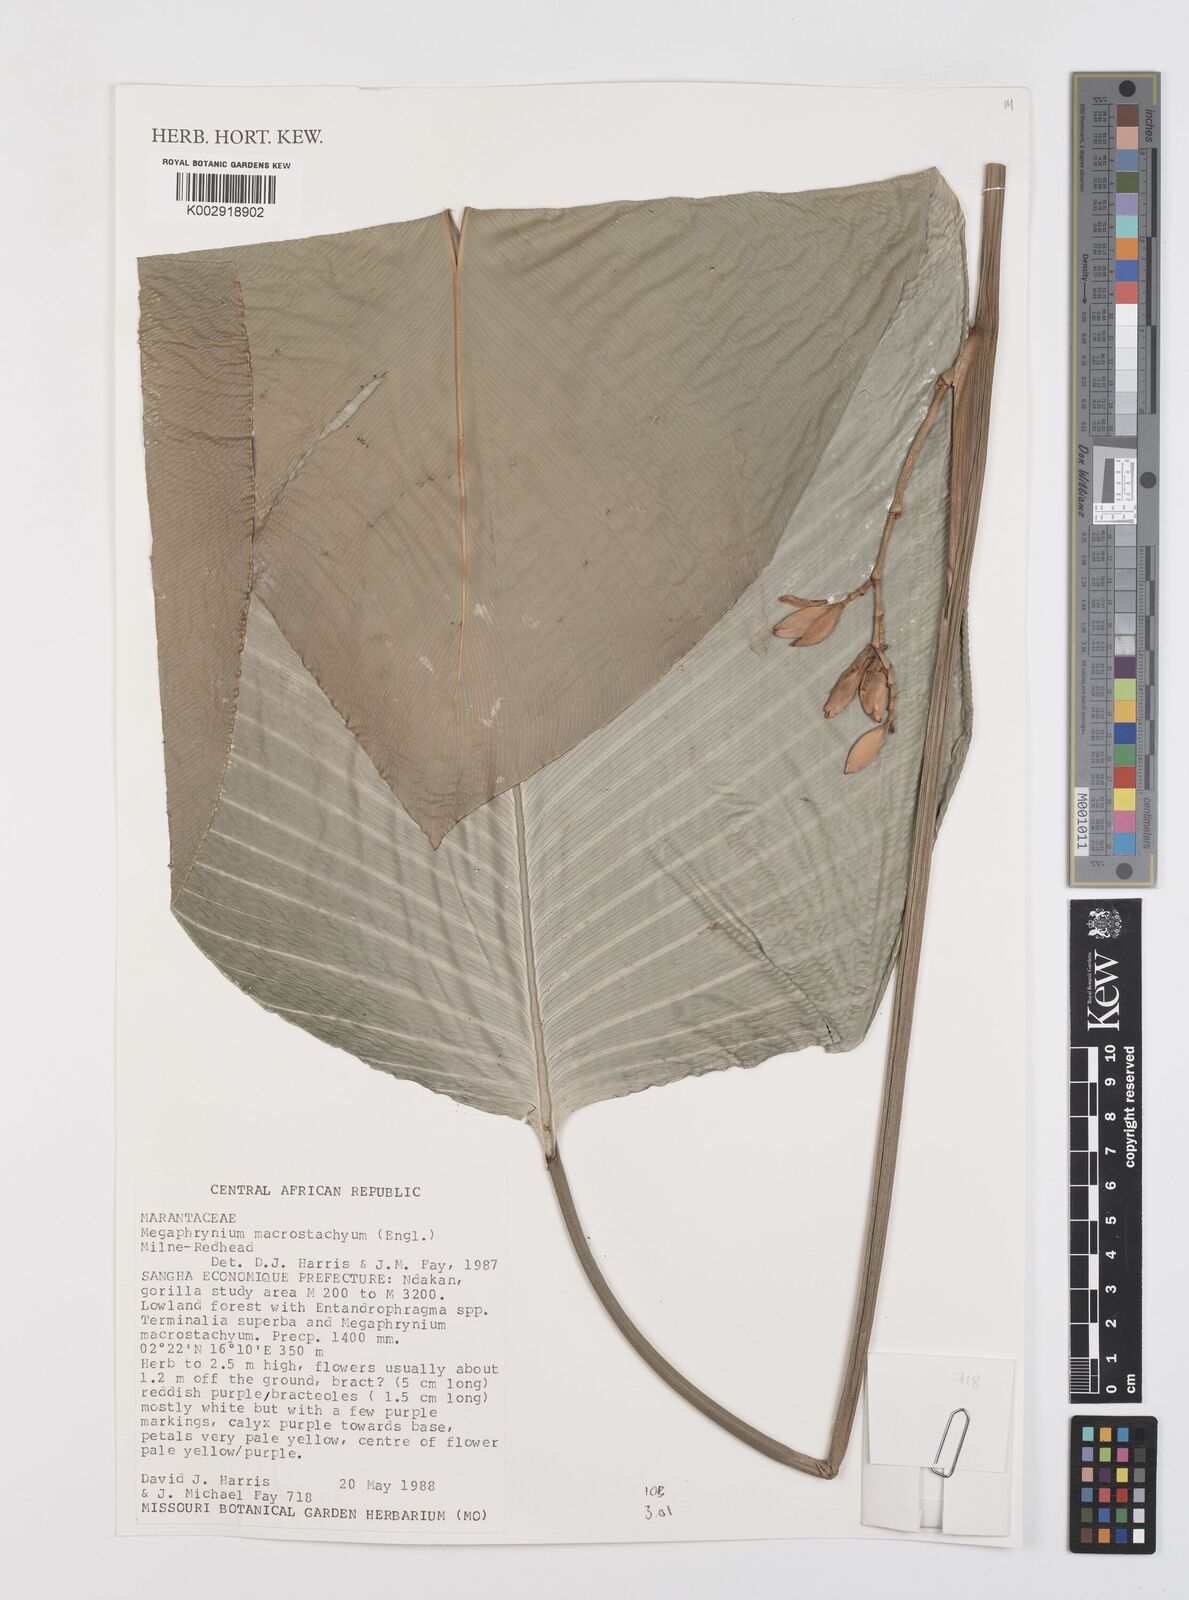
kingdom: Plantae
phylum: Tracheophyta
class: Liliopsida
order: Zingiberales
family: Marantaceae
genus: Megaphrynium
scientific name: Megaphrynium macrostachyum
